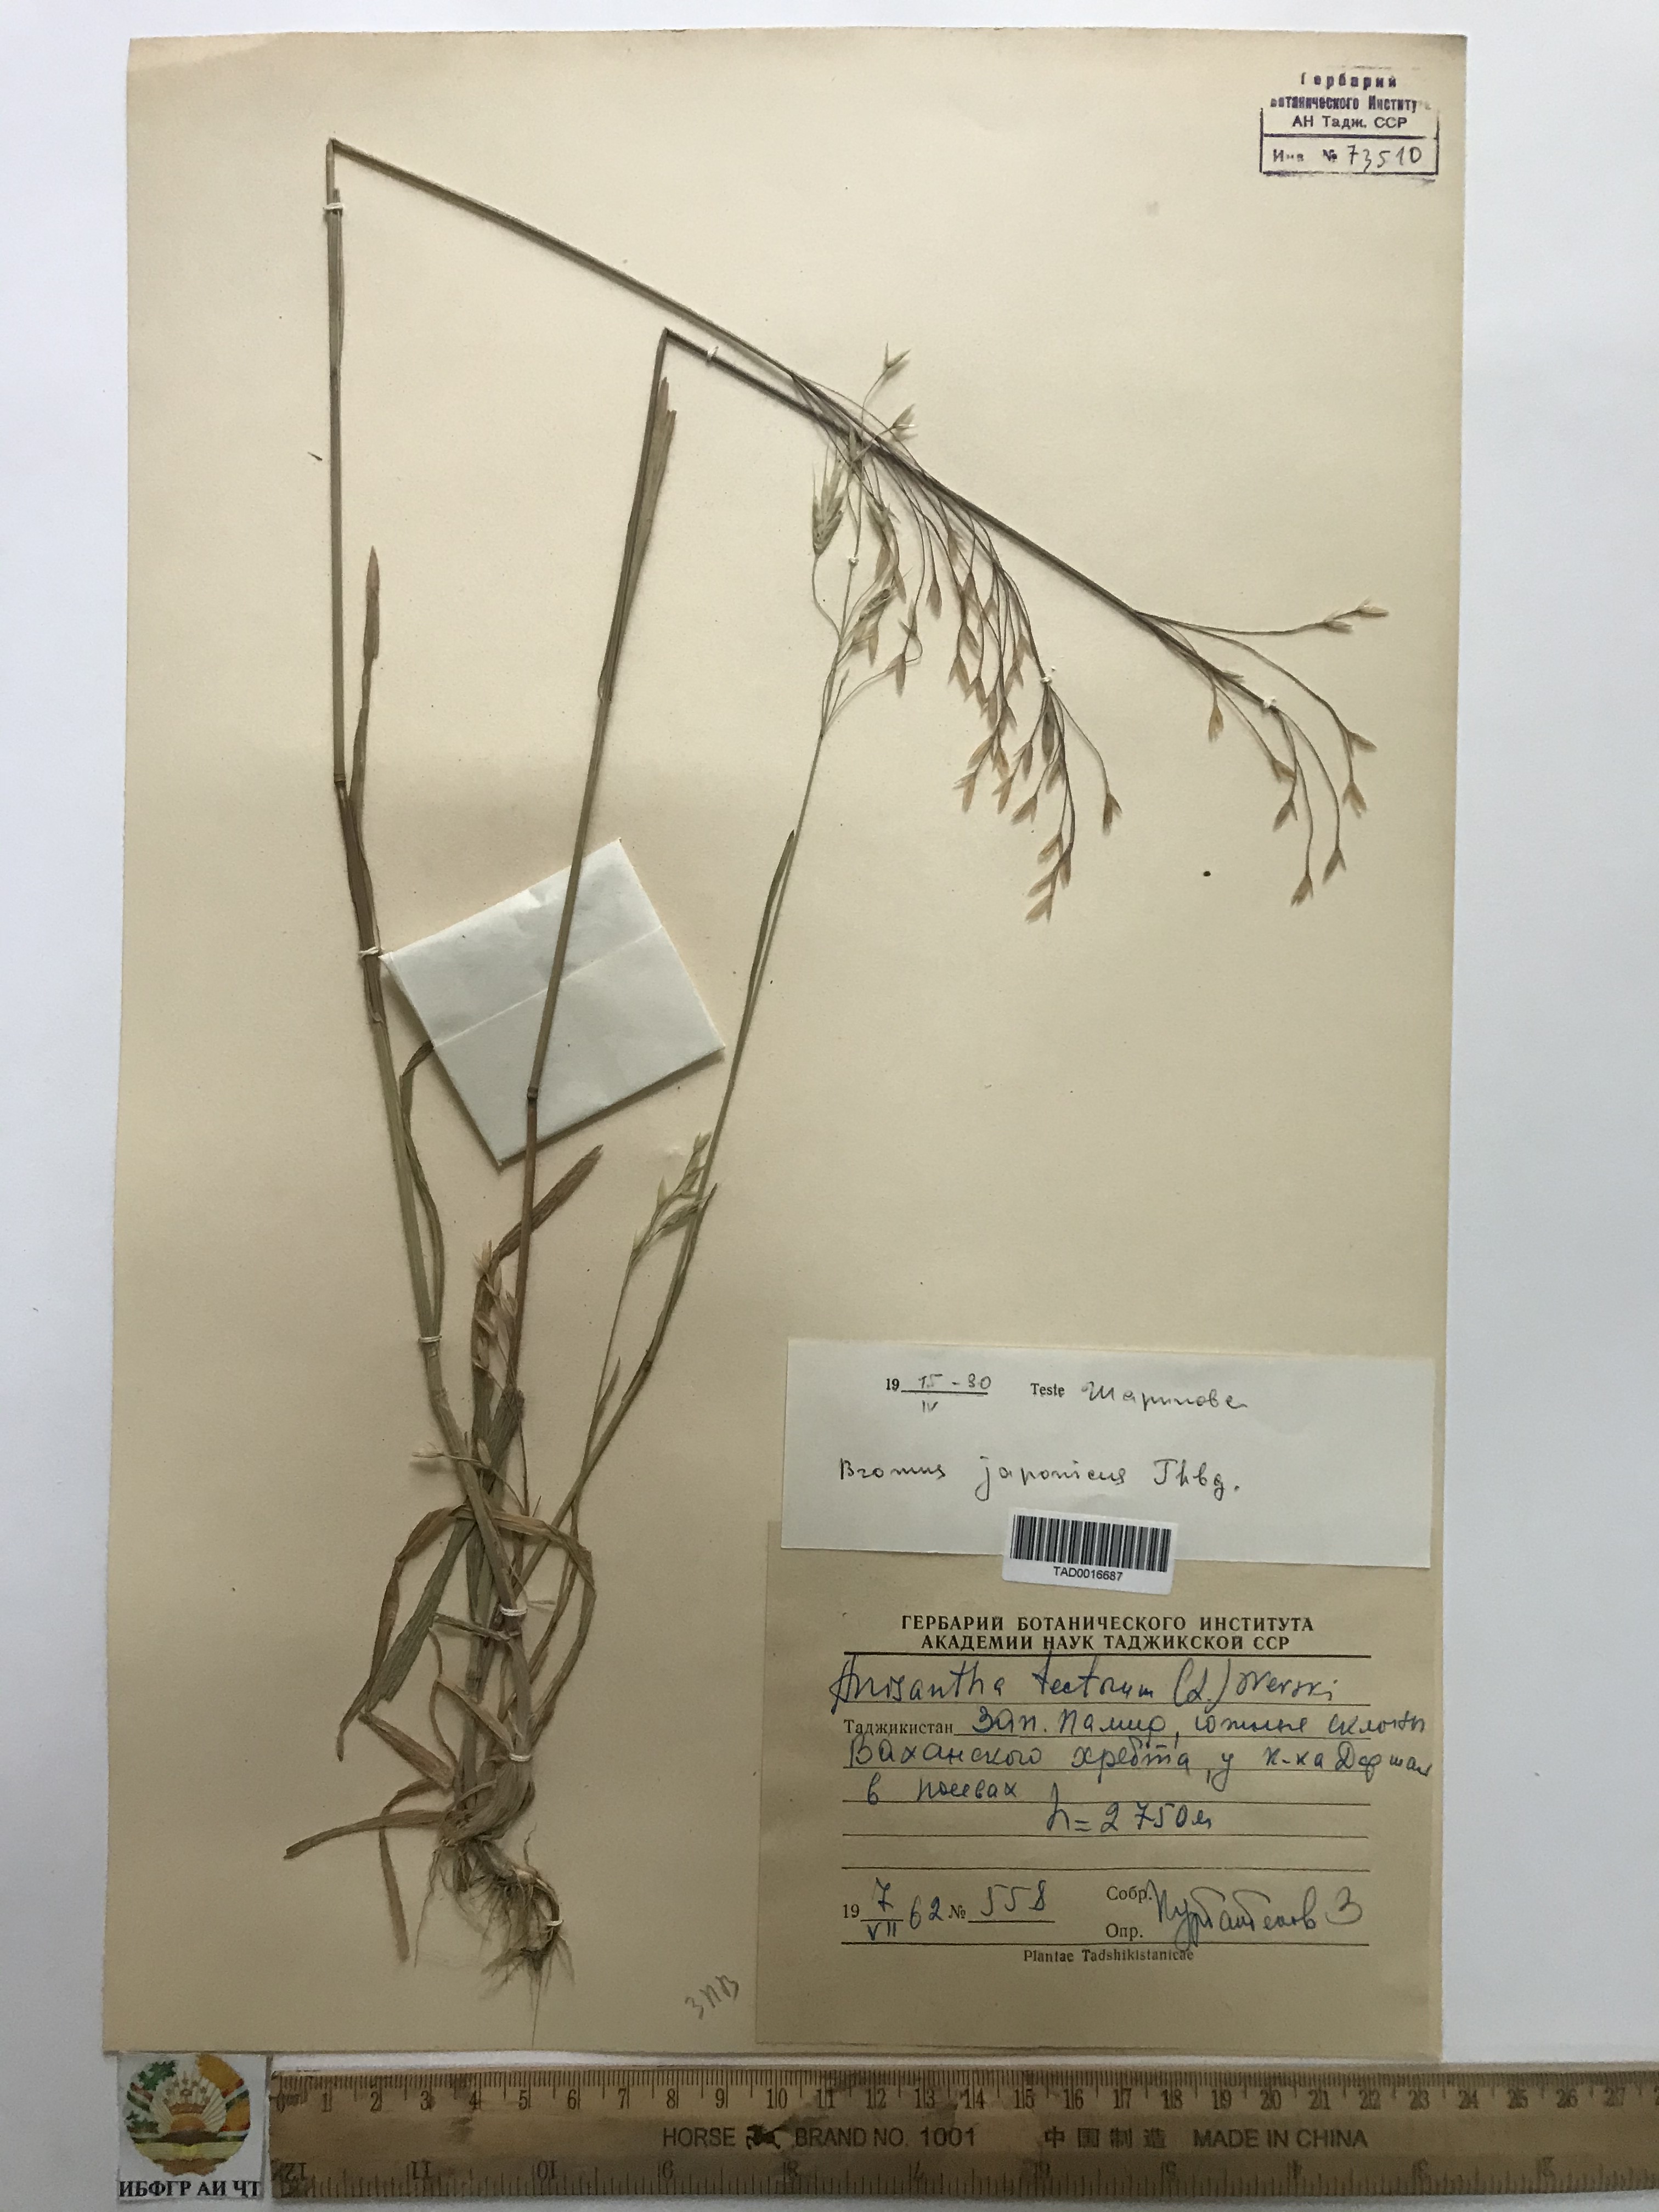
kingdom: Plantae
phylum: Tracheophyta
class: Liliopsida
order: Poales
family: Poaceae
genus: Bromus
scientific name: Bromus japonicus
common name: Japanese brome
